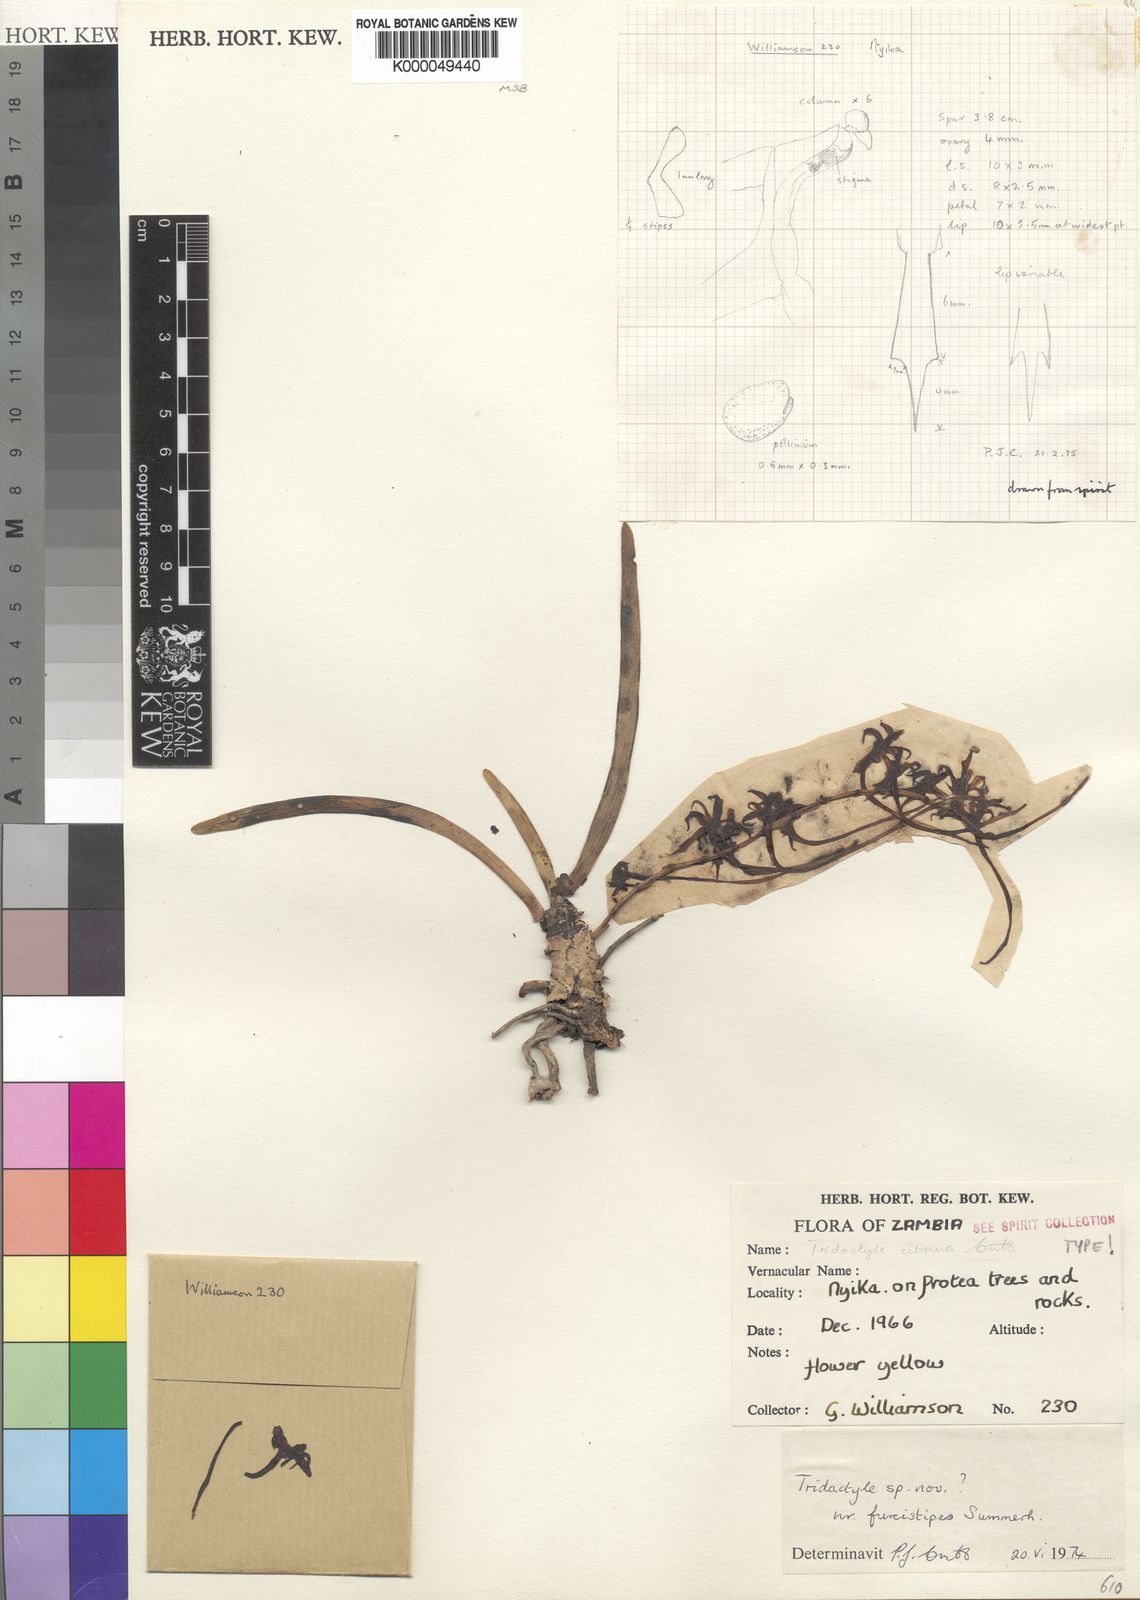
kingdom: Plantae
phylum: Tracheophyta
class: Liliopsida
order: Asparagales
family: Orchidaceae
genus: Ypsilopus
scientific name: Ypsilopus citrinus
